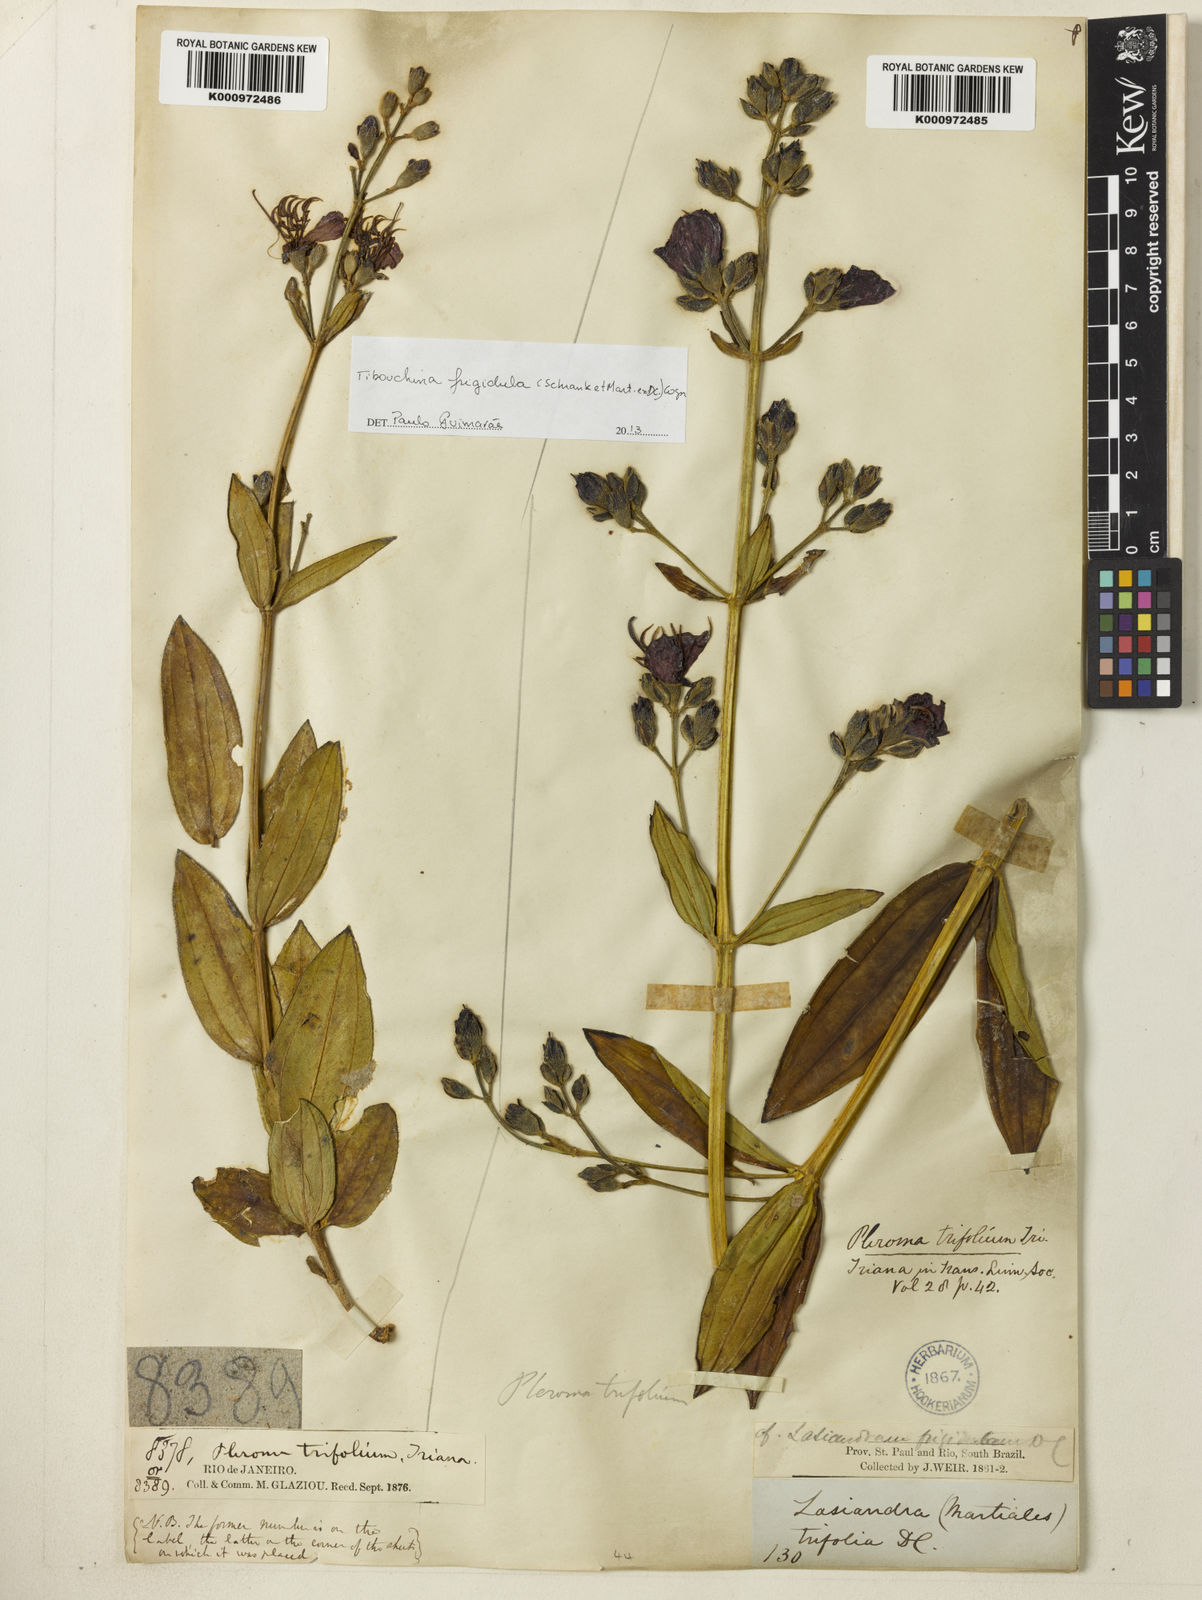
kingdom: Plantae
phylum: Tracheophyta
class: Magnoliopsida
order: Myrtales
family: Melastomataceae
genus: Pleroma
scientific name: Pleroma martiusianum
